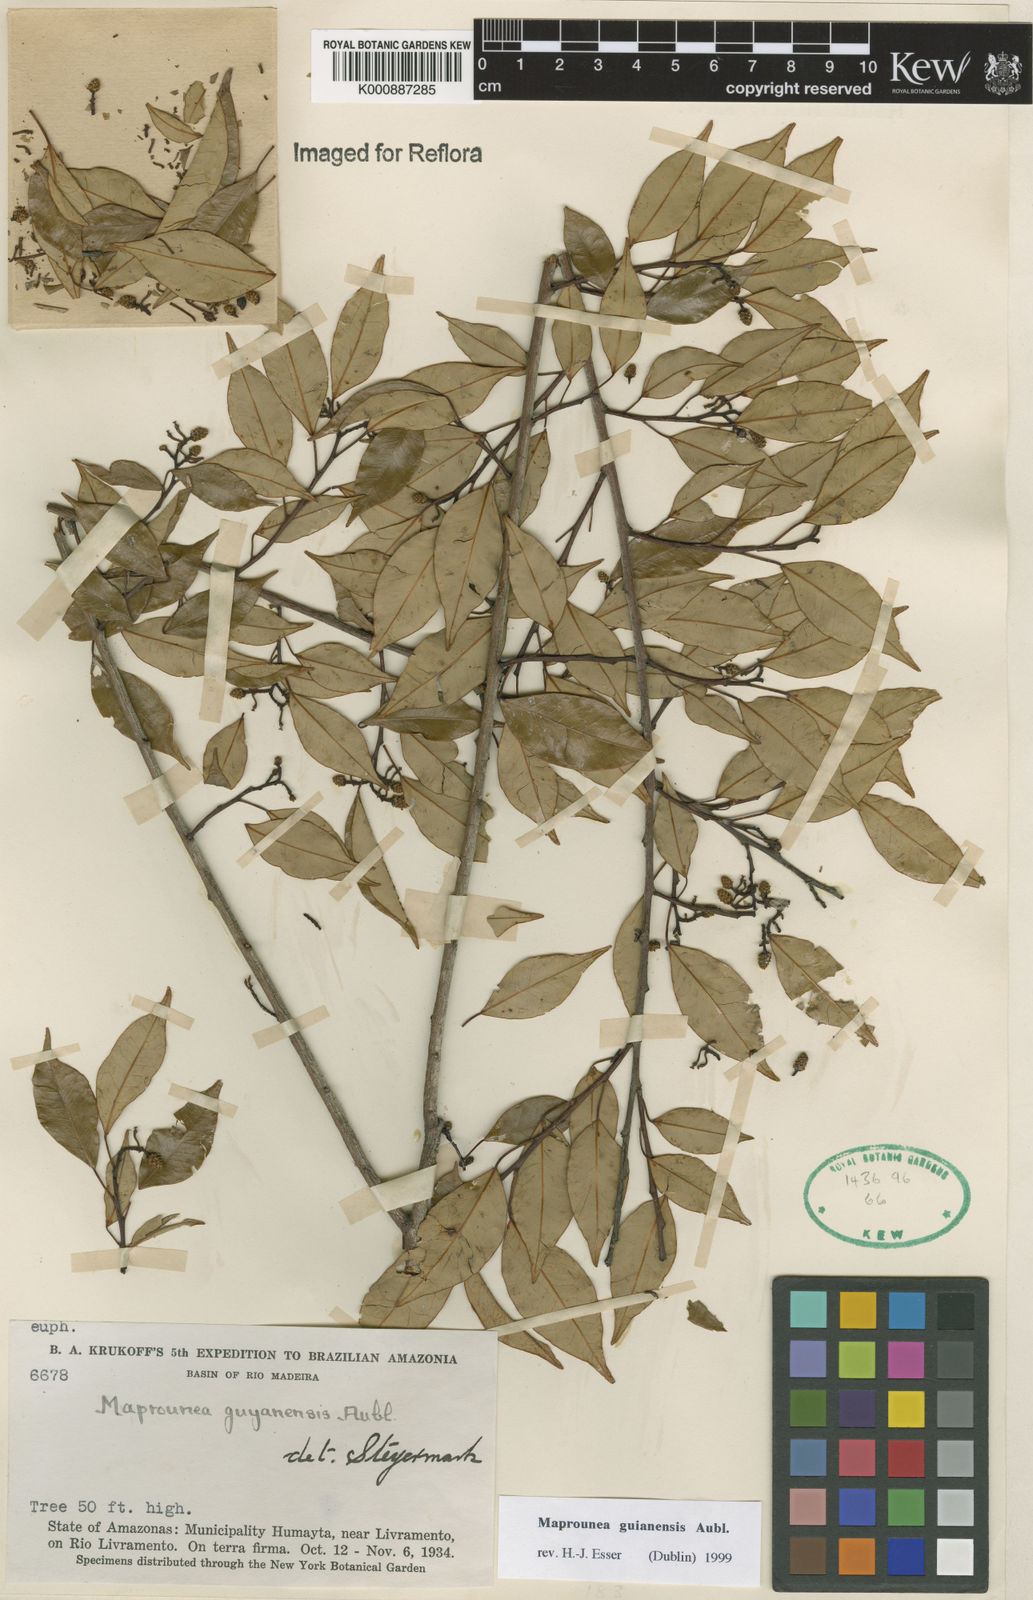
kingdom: Plantae
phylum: Tracheophyta
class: Magnoliopsida
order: Malpighiales
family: Euphorbiaceae
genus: Maprounea
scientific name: Maprounea guianensis
